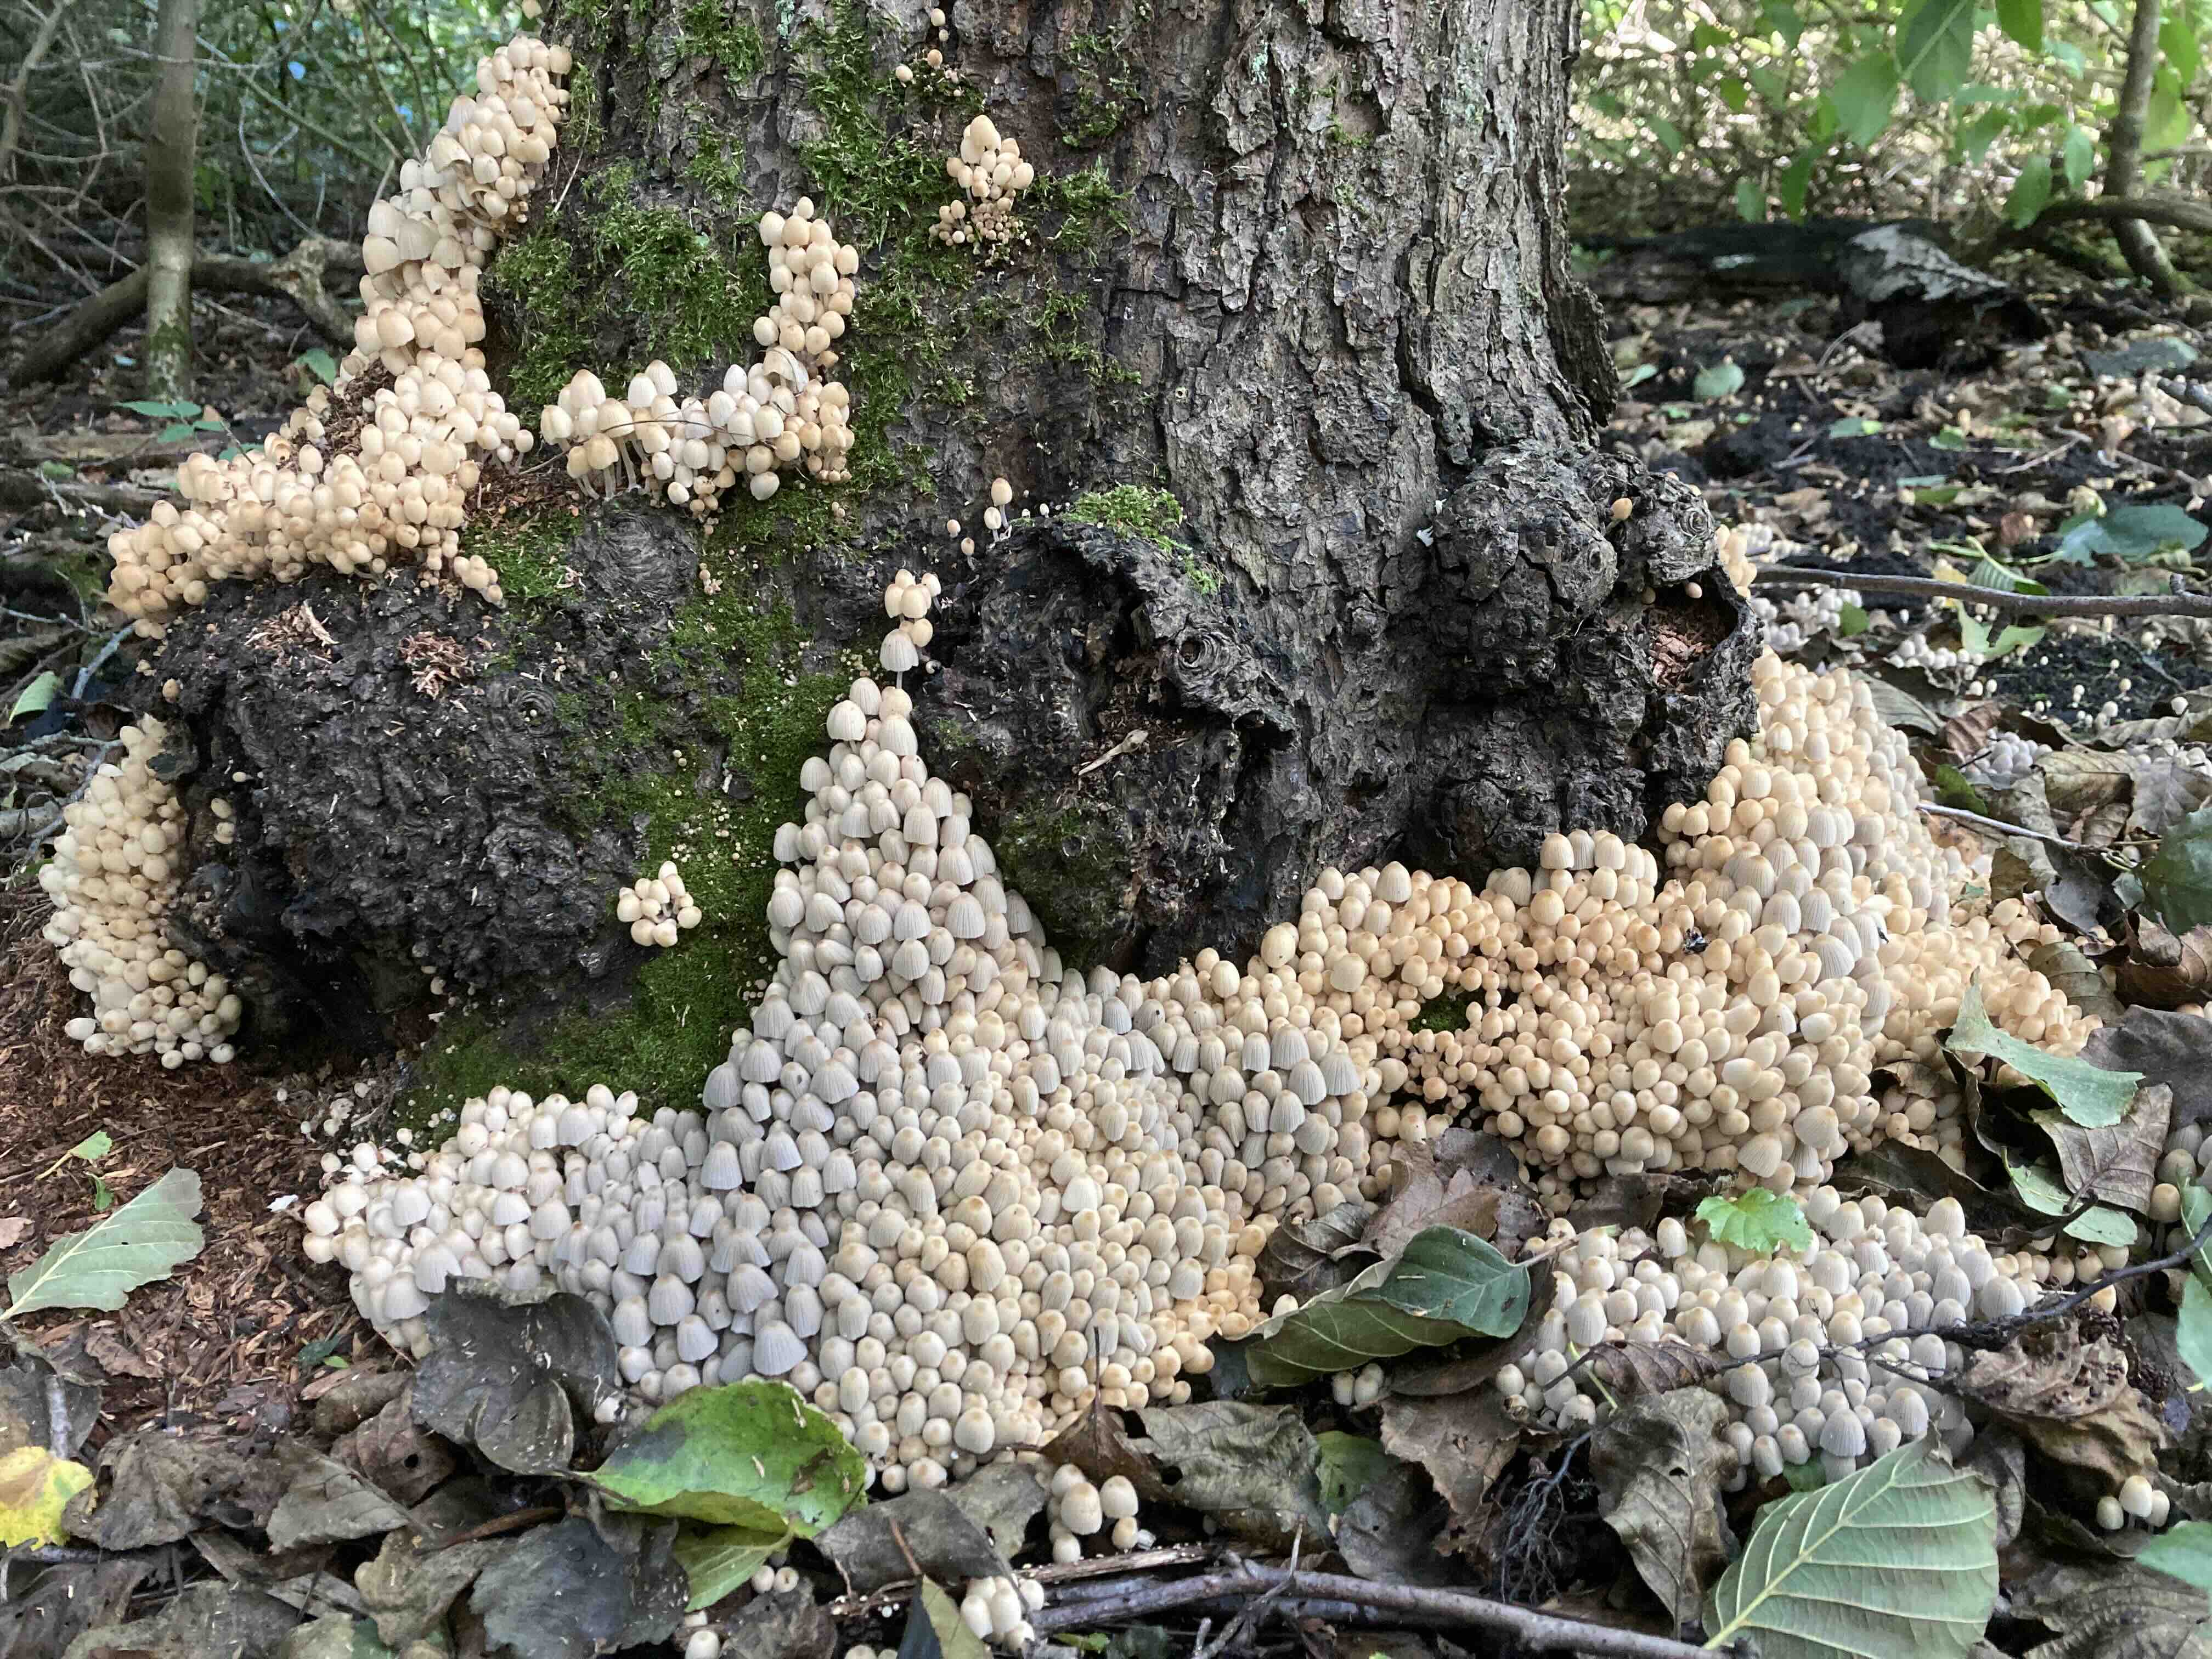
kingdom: Fungi
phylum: Basidiomycota
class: Agaricomycetes
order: Agaricales
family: Psathyrellaceae
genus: Coprinellus
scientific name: Coprinellus disseminatus
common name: bredsået blækhat
